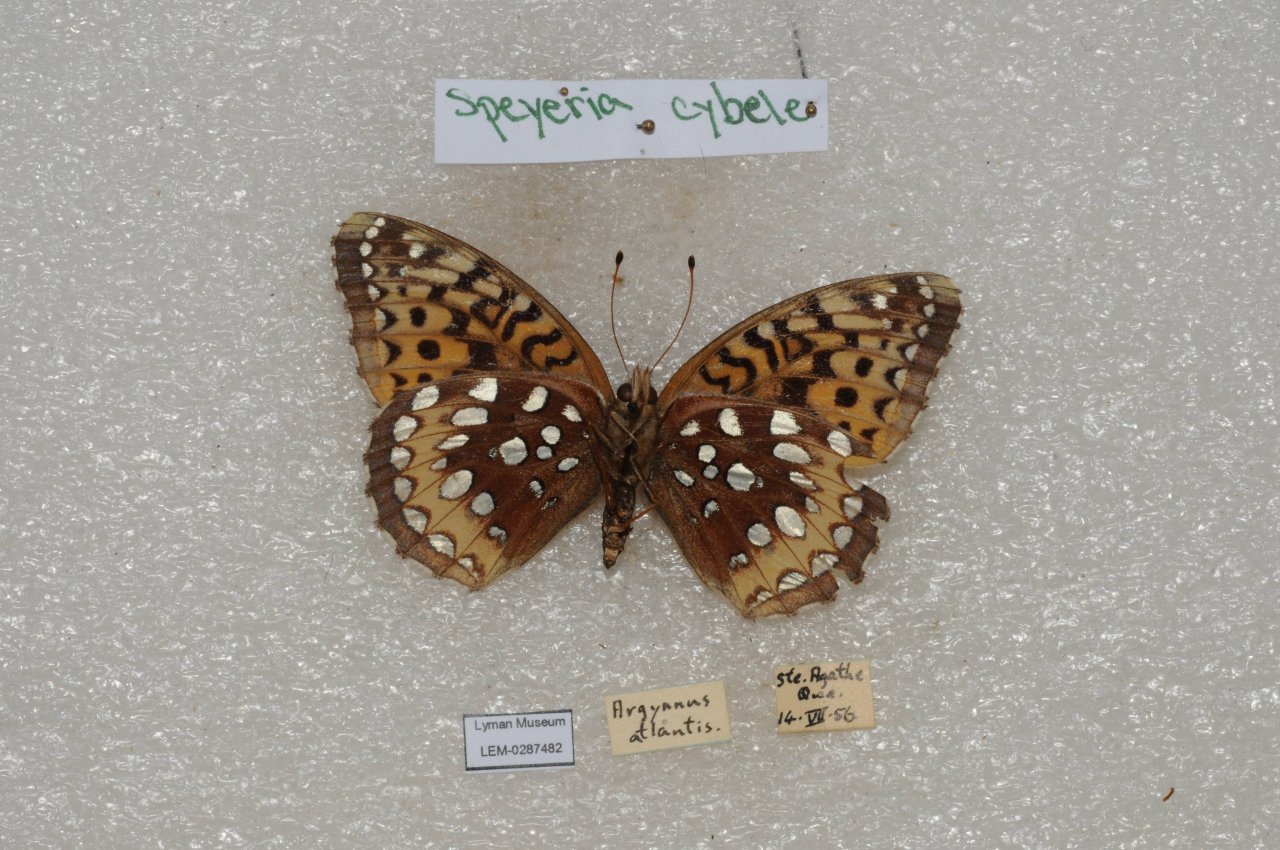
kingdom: Animalia
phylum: Arthropoda
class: Insecta
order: Lepidoptera
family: Nymphalidae
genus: Speyeria
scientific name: Speyeria cybele
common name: Great Spangled Fritillary
